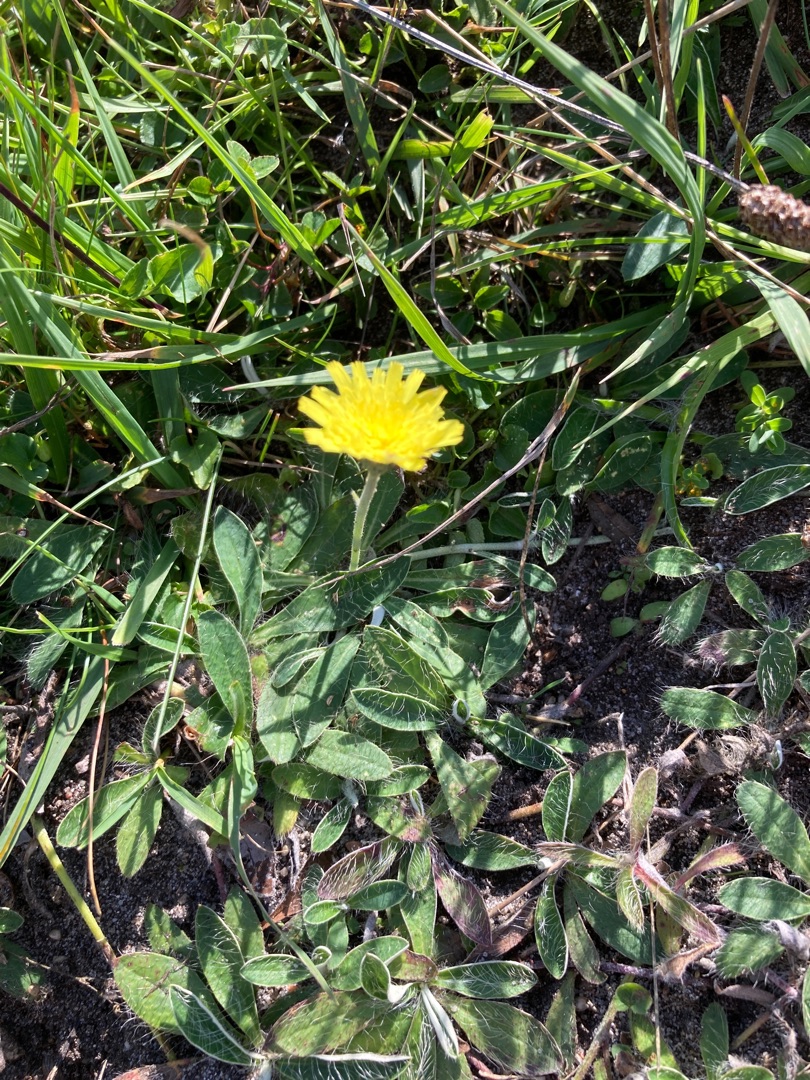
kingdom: Plantae
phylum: Tracheophyta
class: Magnoliopsida
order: Asterales
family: Asteraceae
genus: Pilosella
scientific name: Pilosella officinarum
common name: Håret høgeurt
